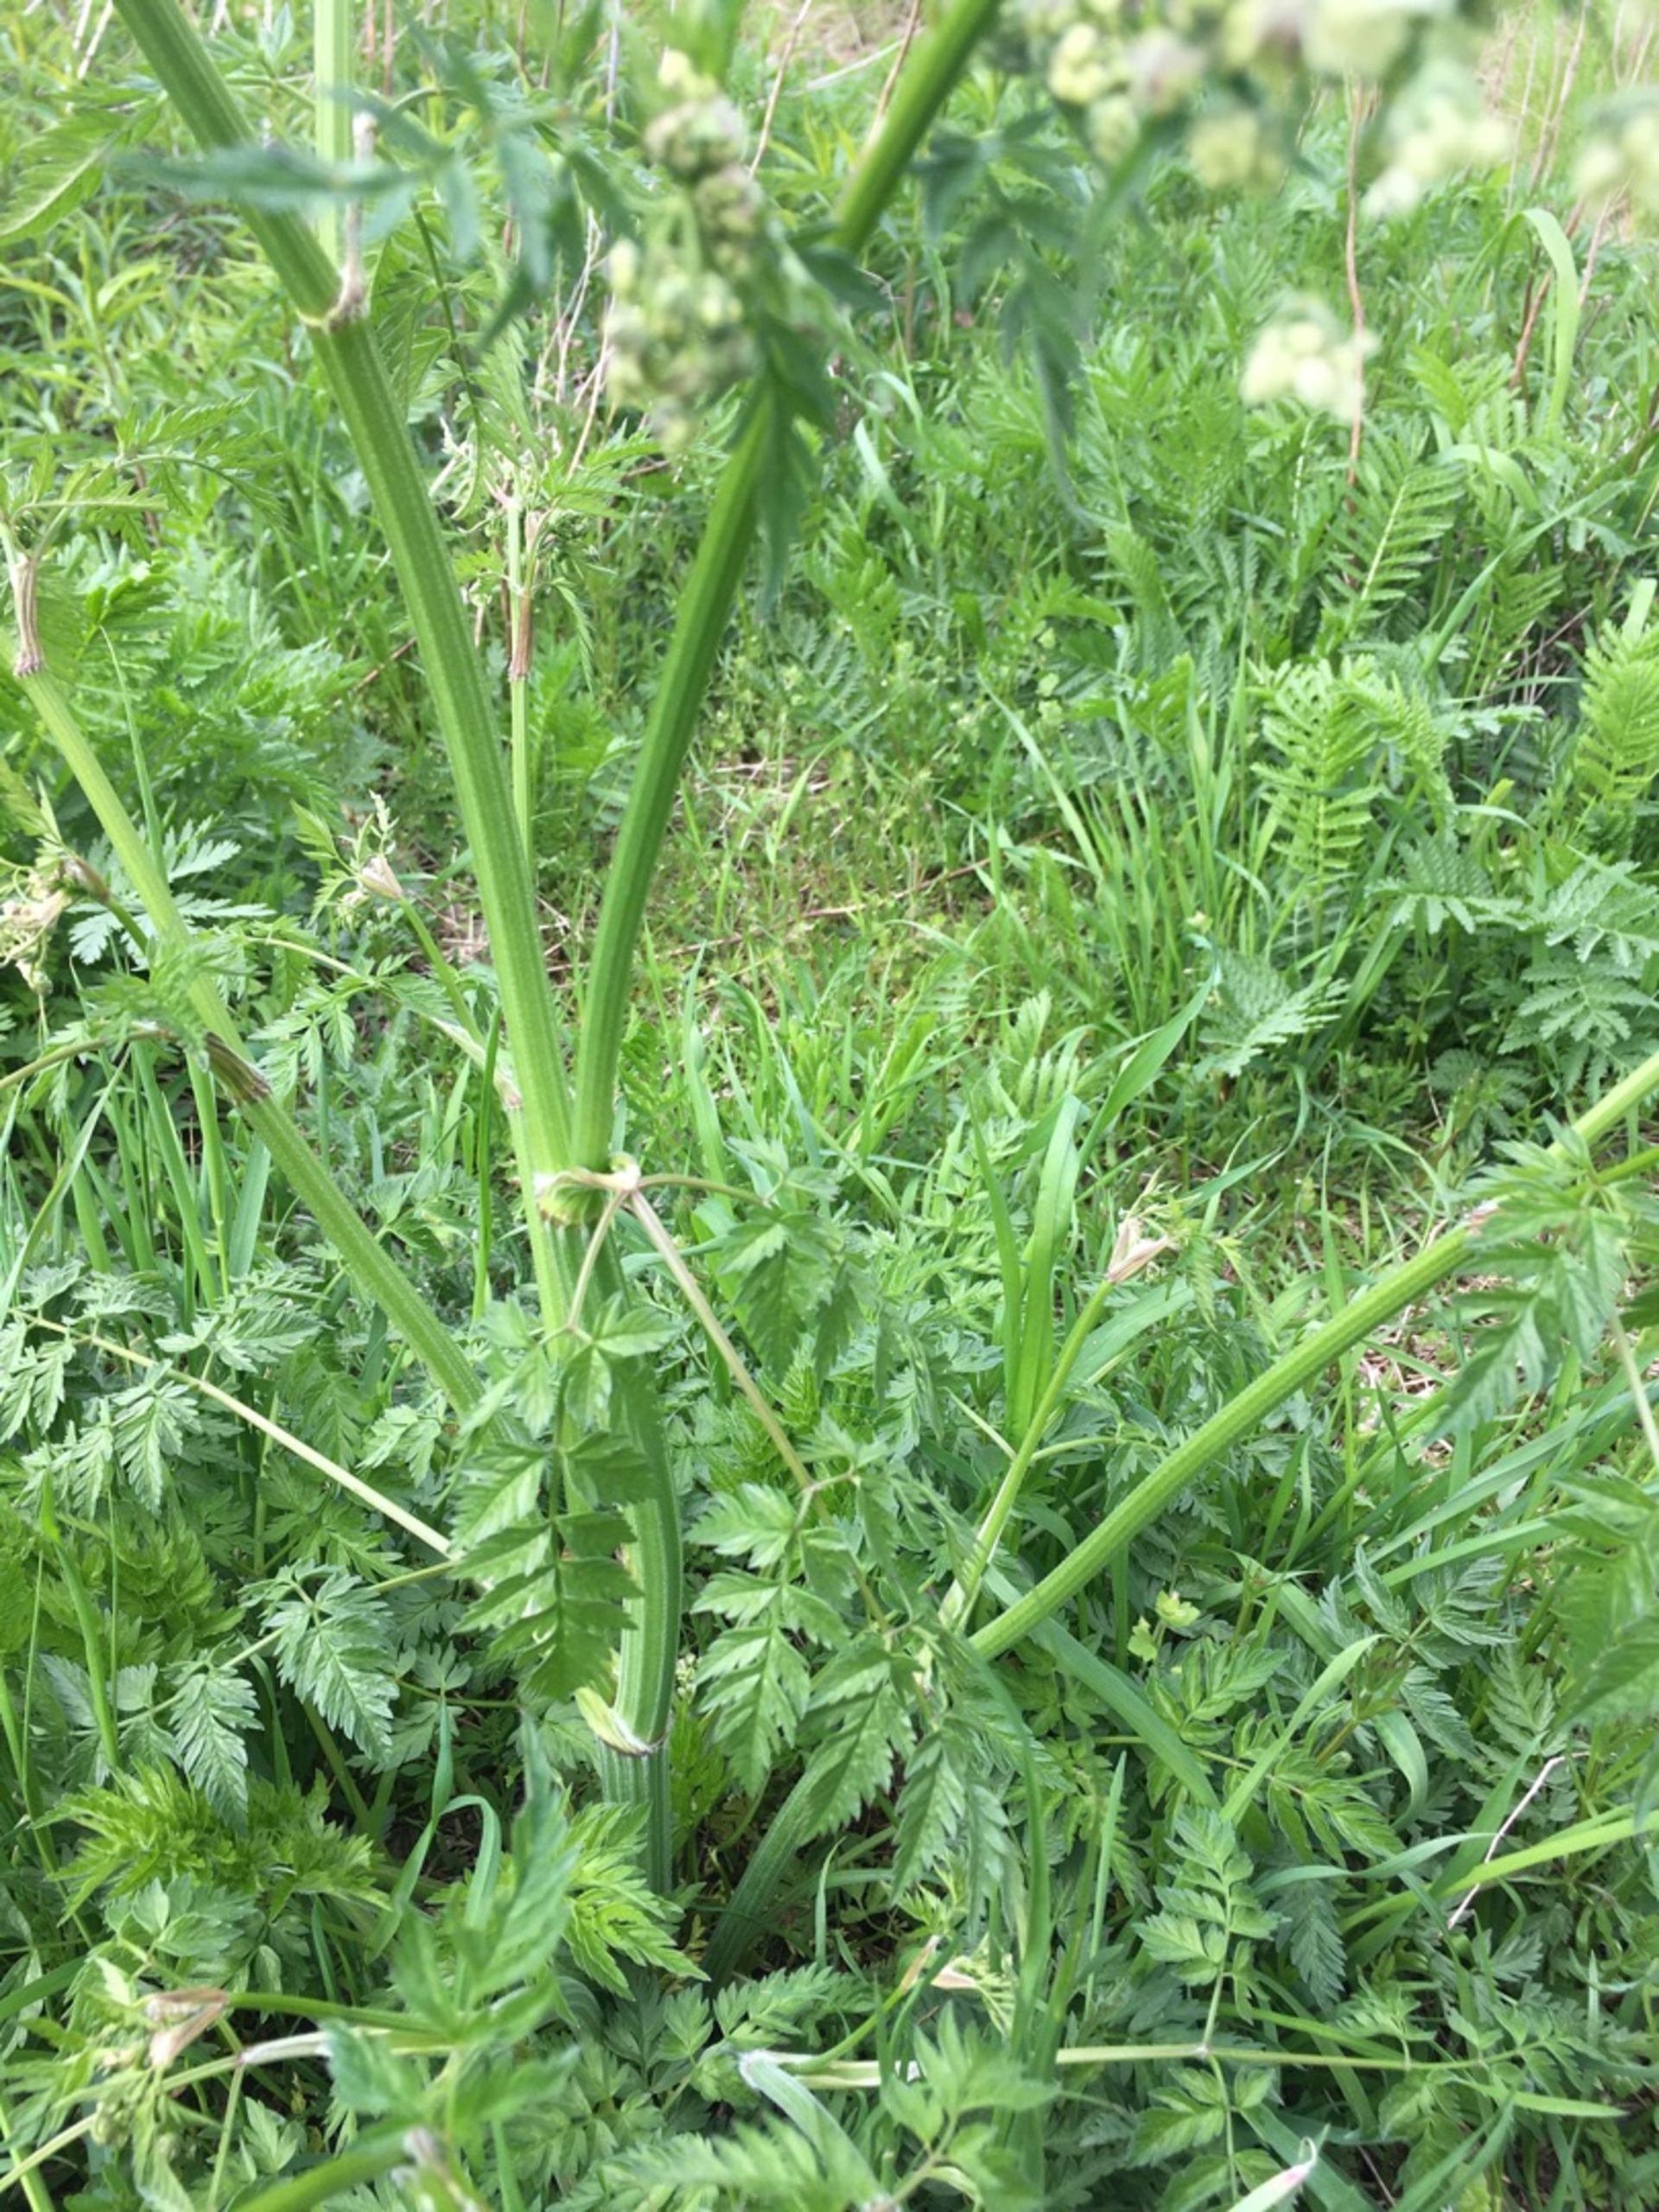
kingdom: Plantae
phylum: Tracheophyta
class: Magnoliopsida
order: Apiales
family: Apiaceae
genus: Anthriscus
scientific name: Anthriscus sylvestris
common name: Vild kørvel
